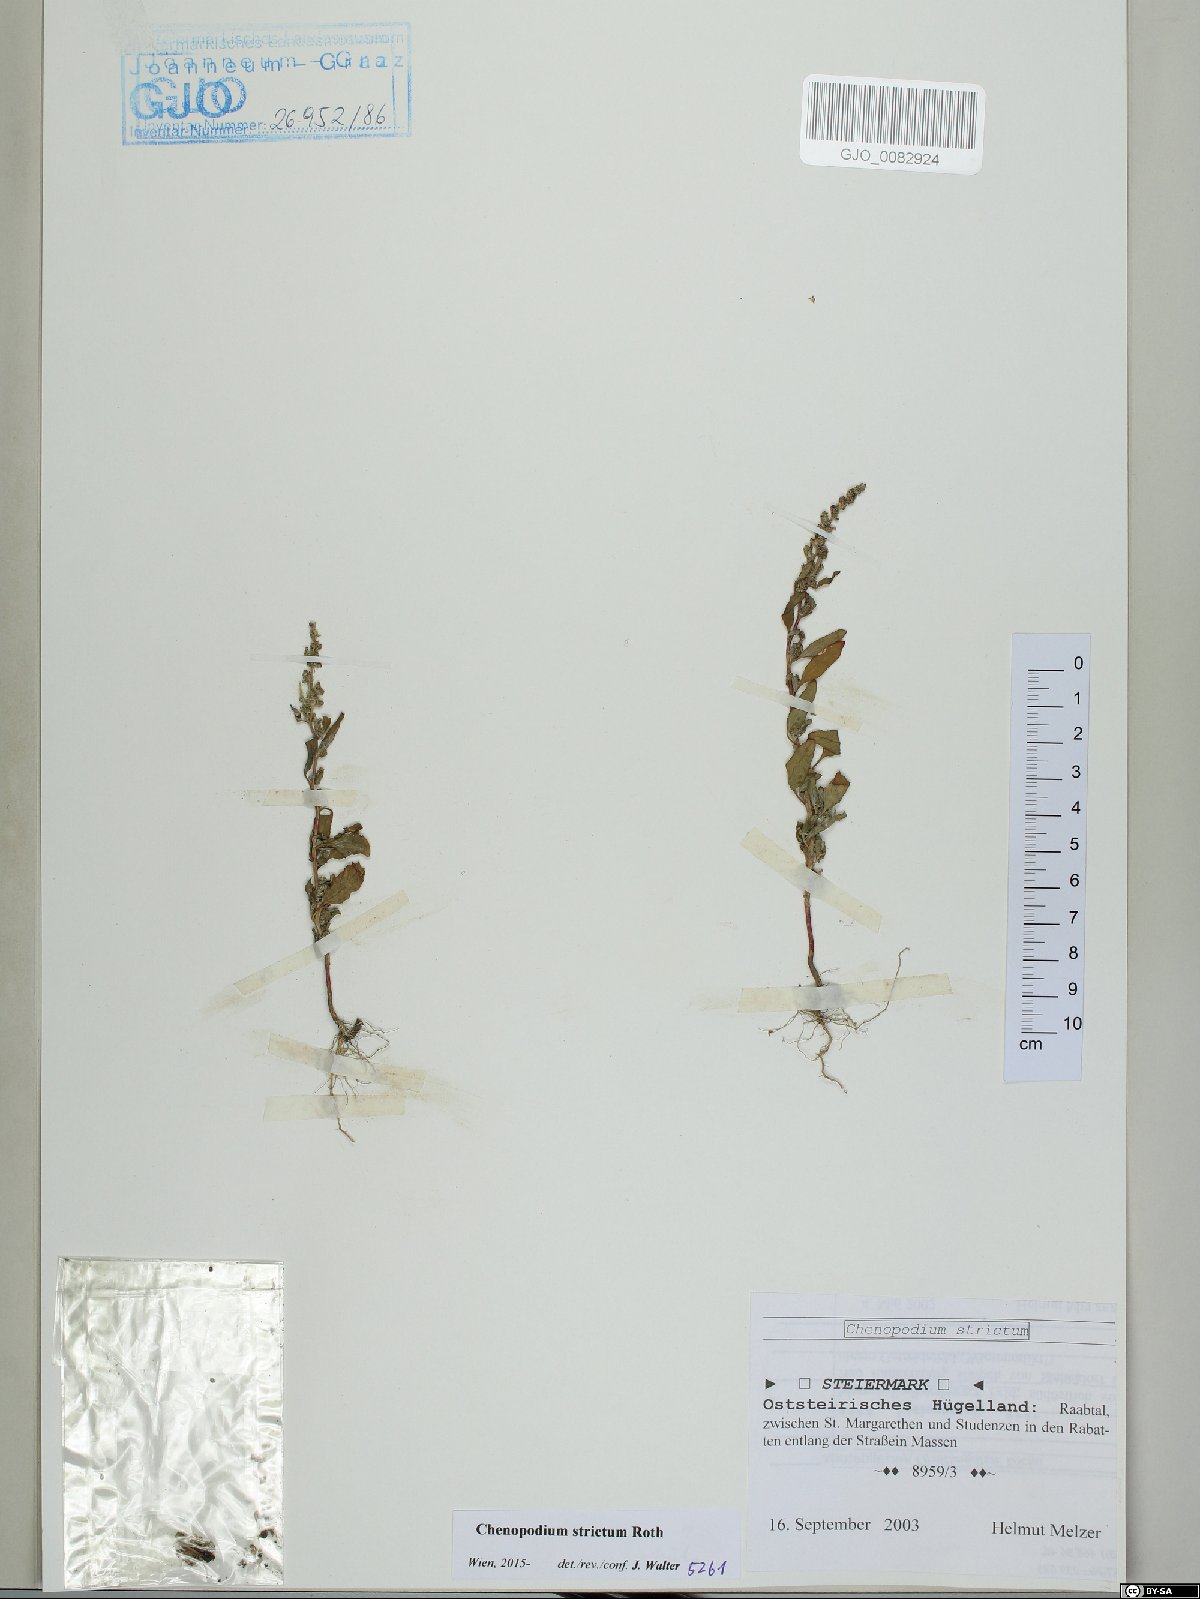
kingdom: Plantae
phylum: Tracheophyta
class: Magnoliopsida
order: Caryophyllales
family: Amaranthaceae
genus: Chenopodium
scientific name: Chenopodium album
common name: Fat-hen
